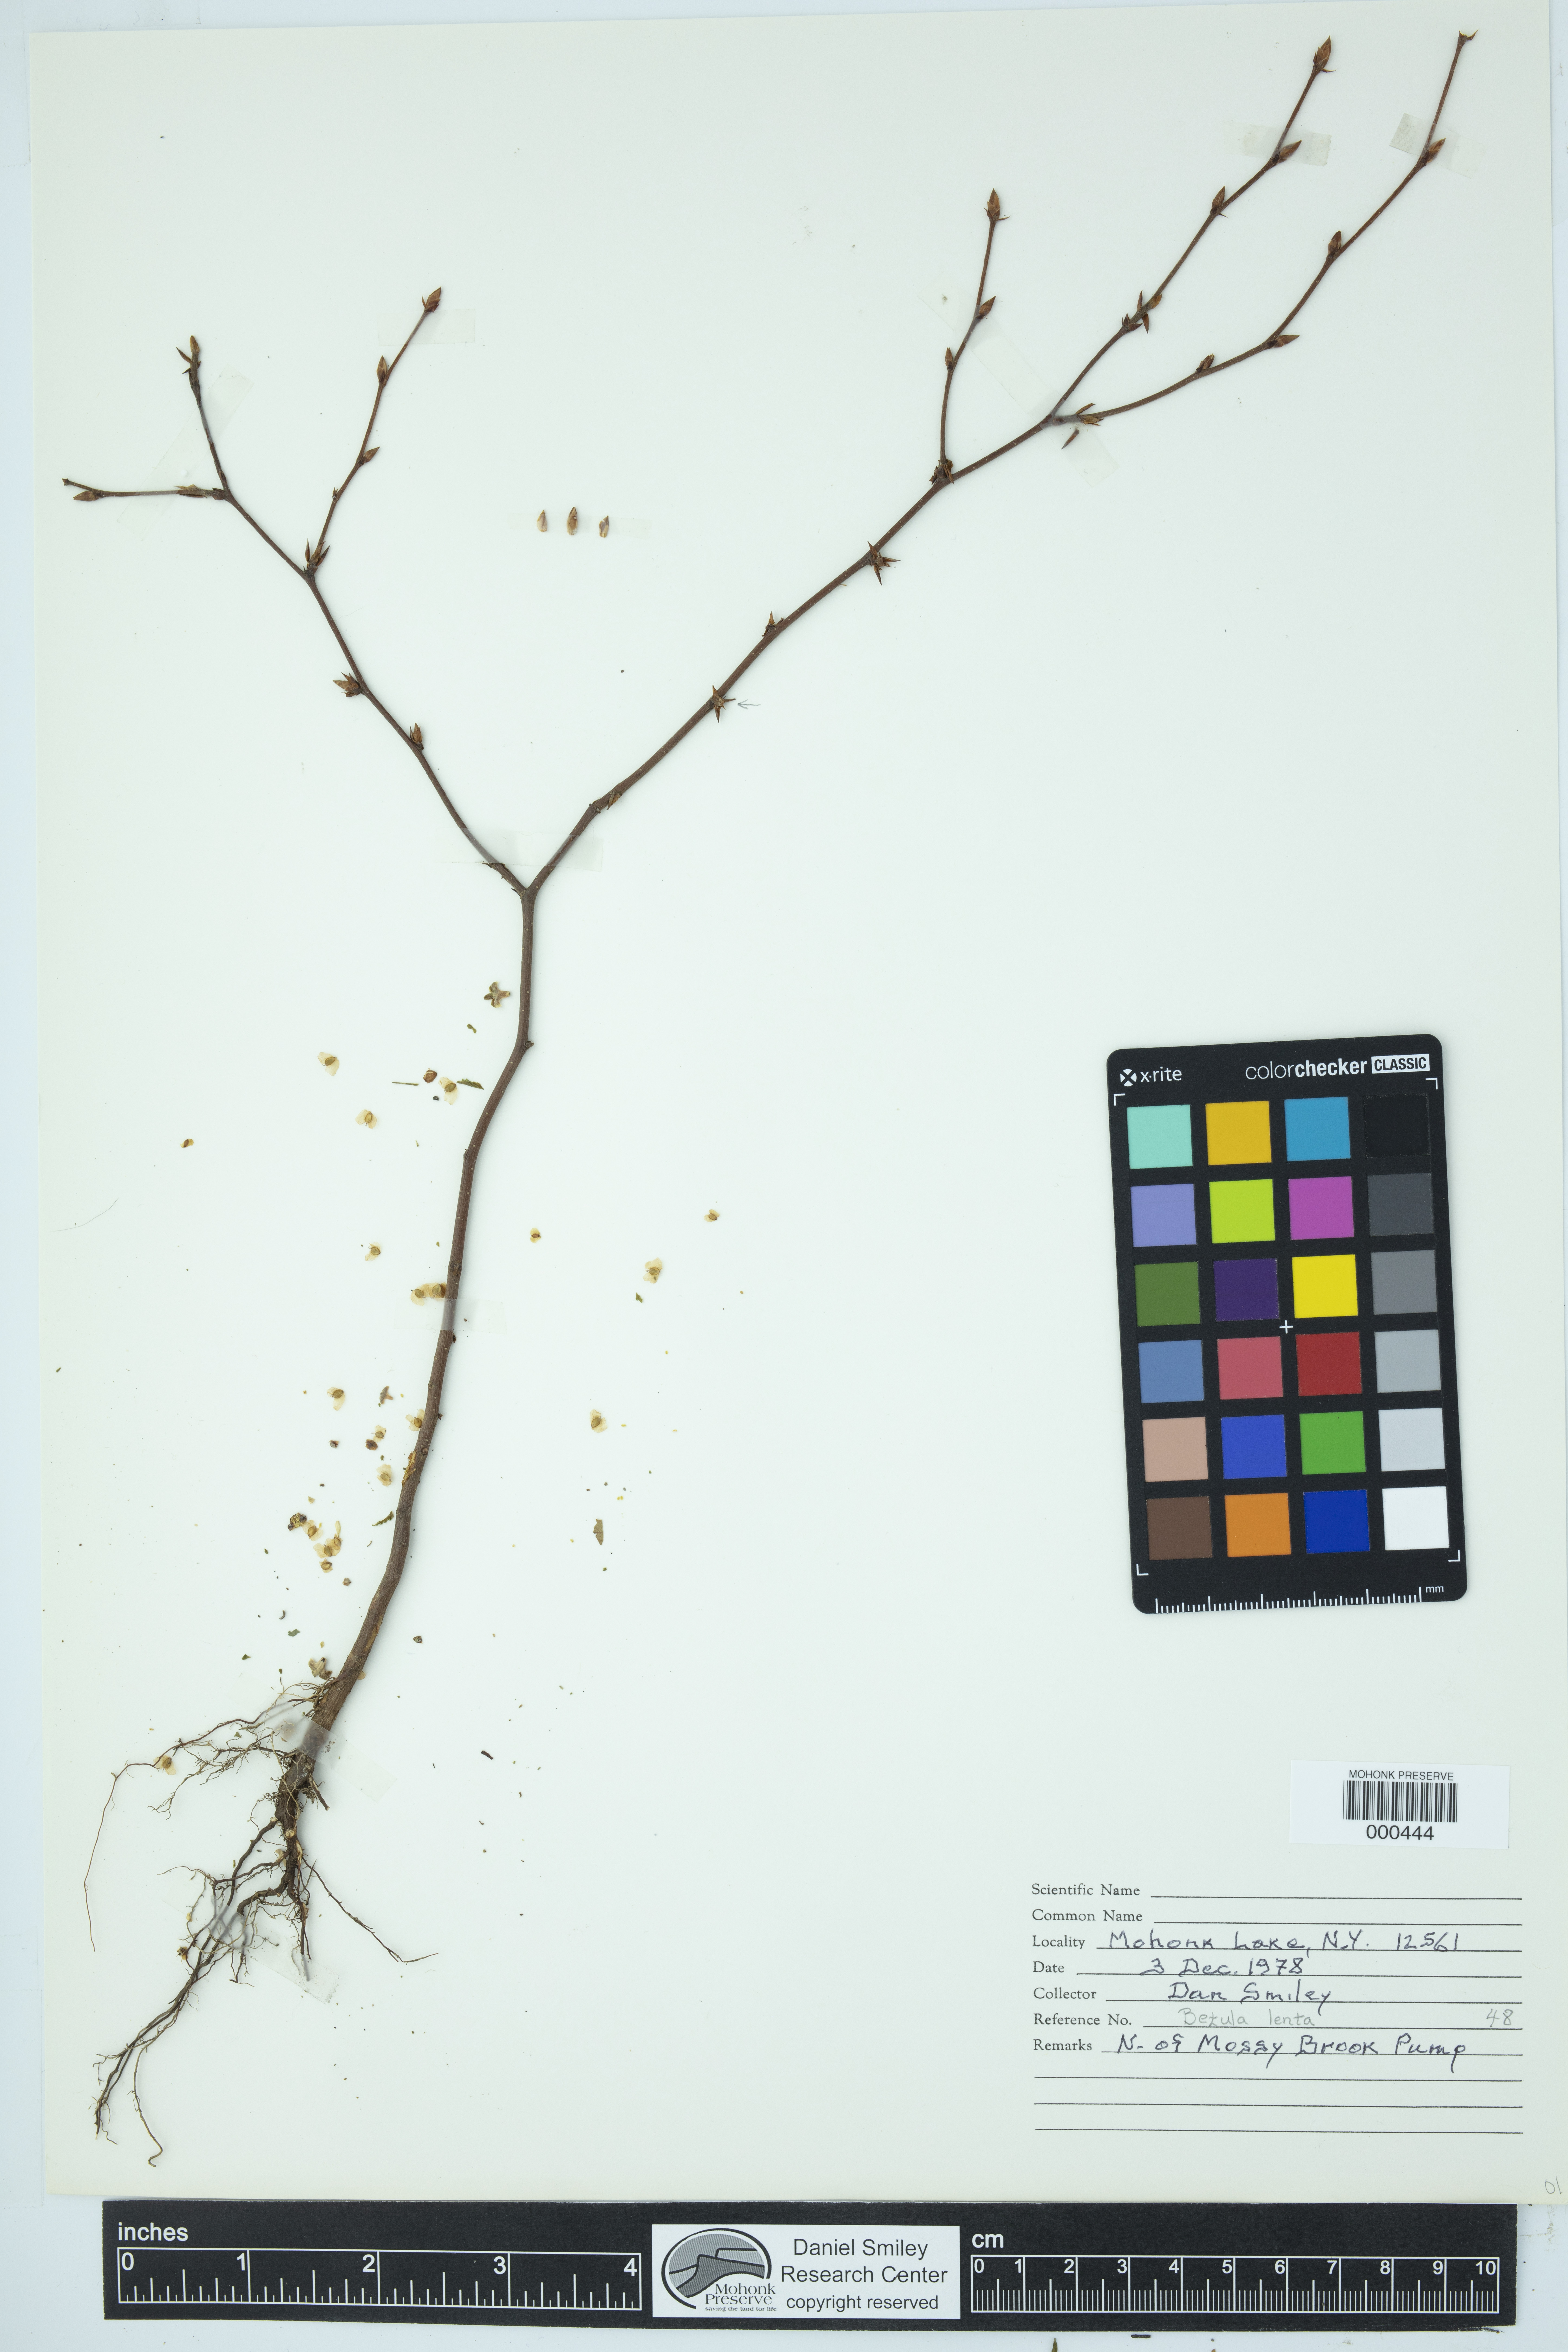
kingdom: Plantae
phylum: Tracheophyta
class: Magnoliopsida
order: Fagales
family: Betulaceae
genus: Betula
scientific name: Betula lenta
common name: Black birch
